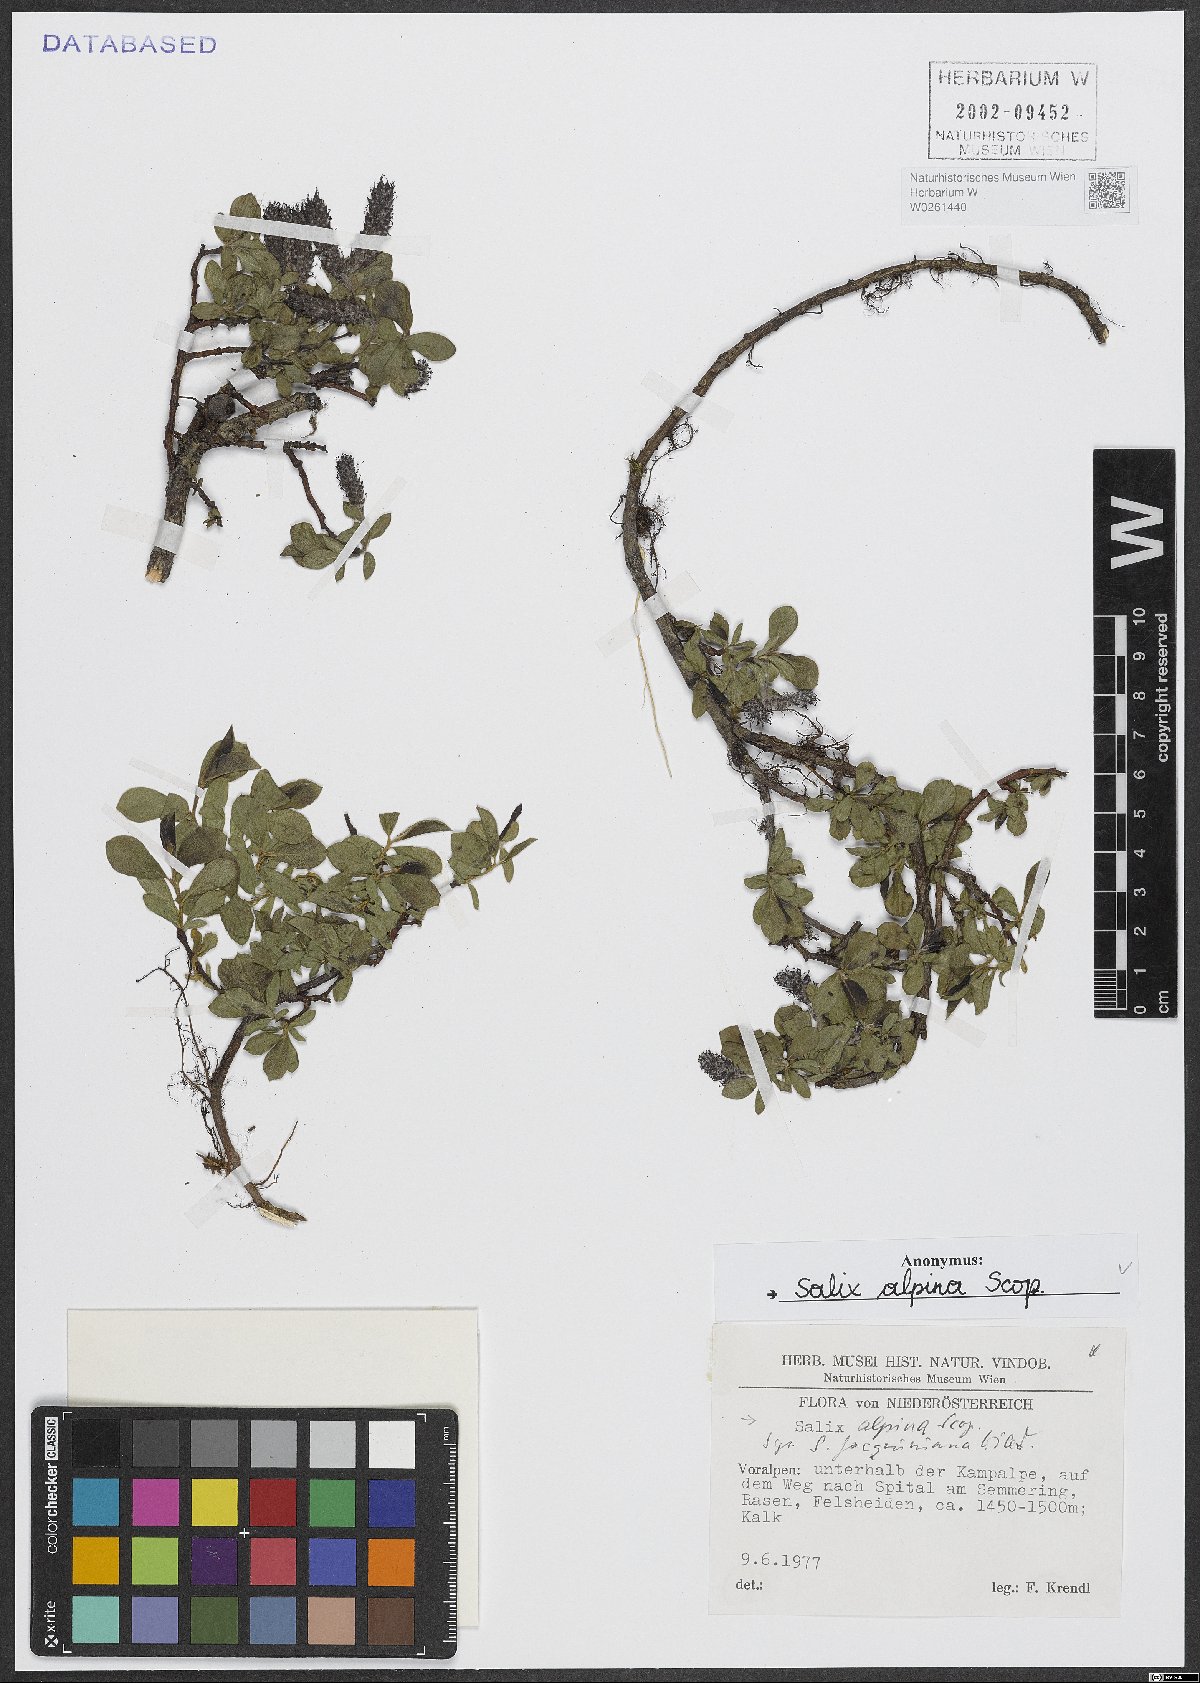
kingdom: Plantae
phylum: Tracheophyta
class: Magnoliopsida
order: Malpighiales
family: Salicaceae
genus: Salix
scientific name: Salix alpina
